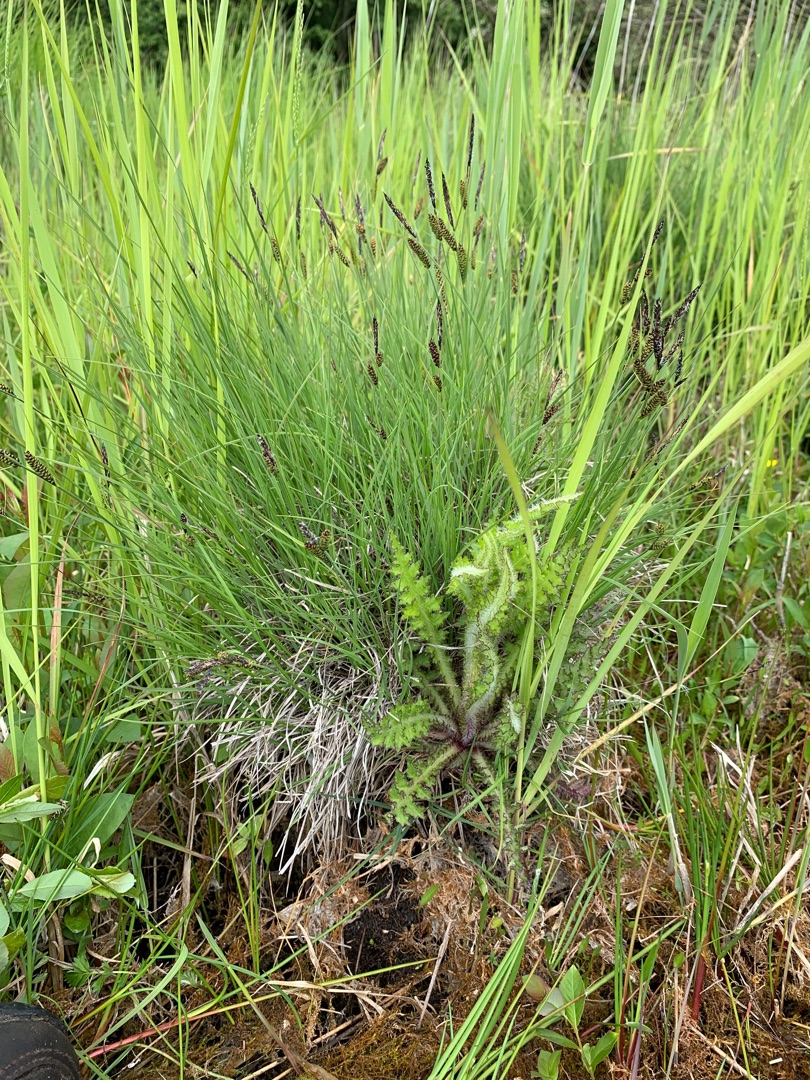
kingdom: Plantae
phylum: Tracheophyta
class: Liliopsida
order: Poales
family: Cyperaceae
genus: Carex
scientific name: Carex nigra
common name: Knold-star
